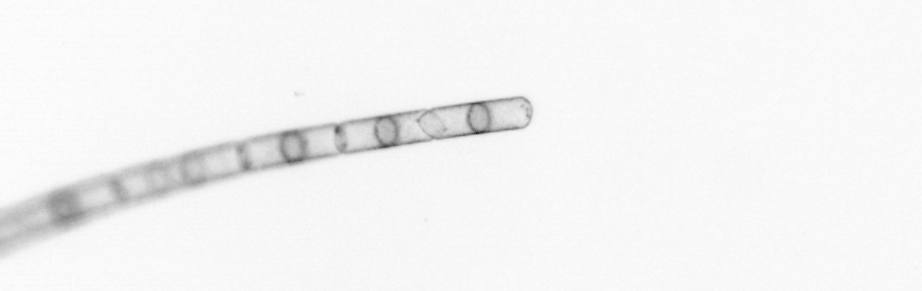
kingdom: Chromista
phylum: Ochrophyta
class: Bacillariophyceae
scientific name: Bacillariophyceae
